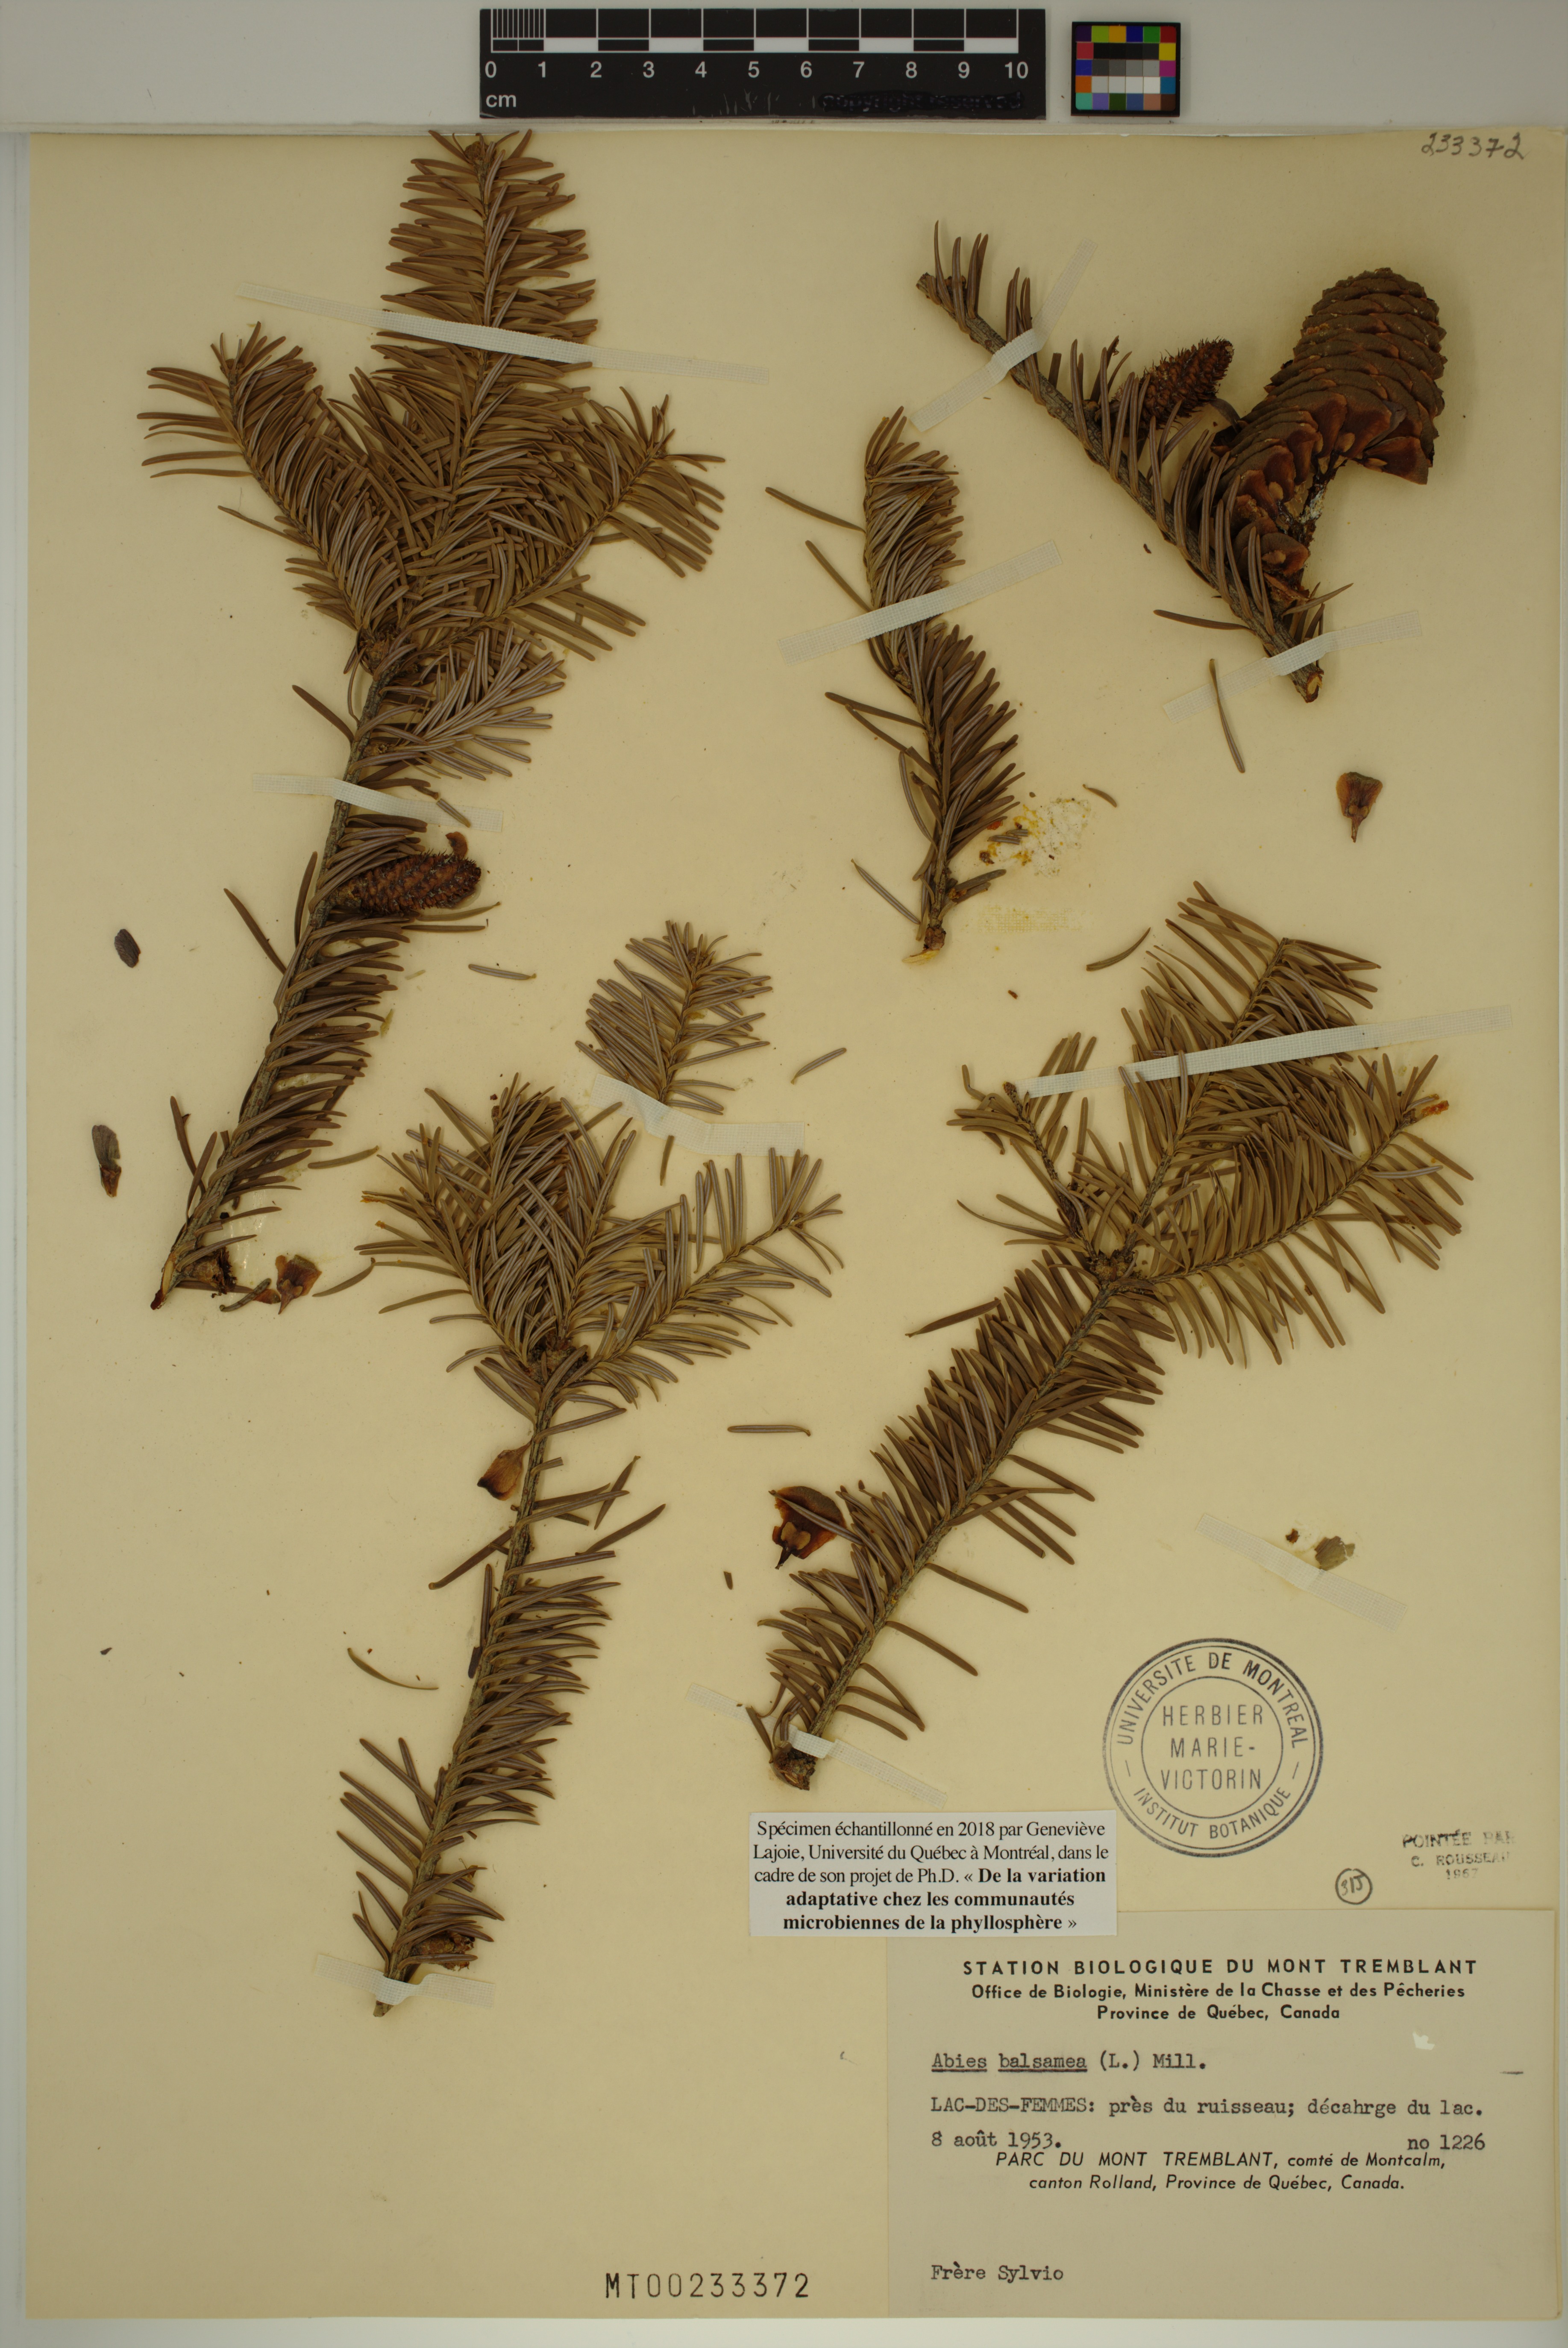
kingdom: Plantae
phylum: Tracheophyta
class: Pinopsida
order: Pinales
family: Pinaceae
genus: Abies
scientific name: Abies balsamea
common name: Balsam fir
